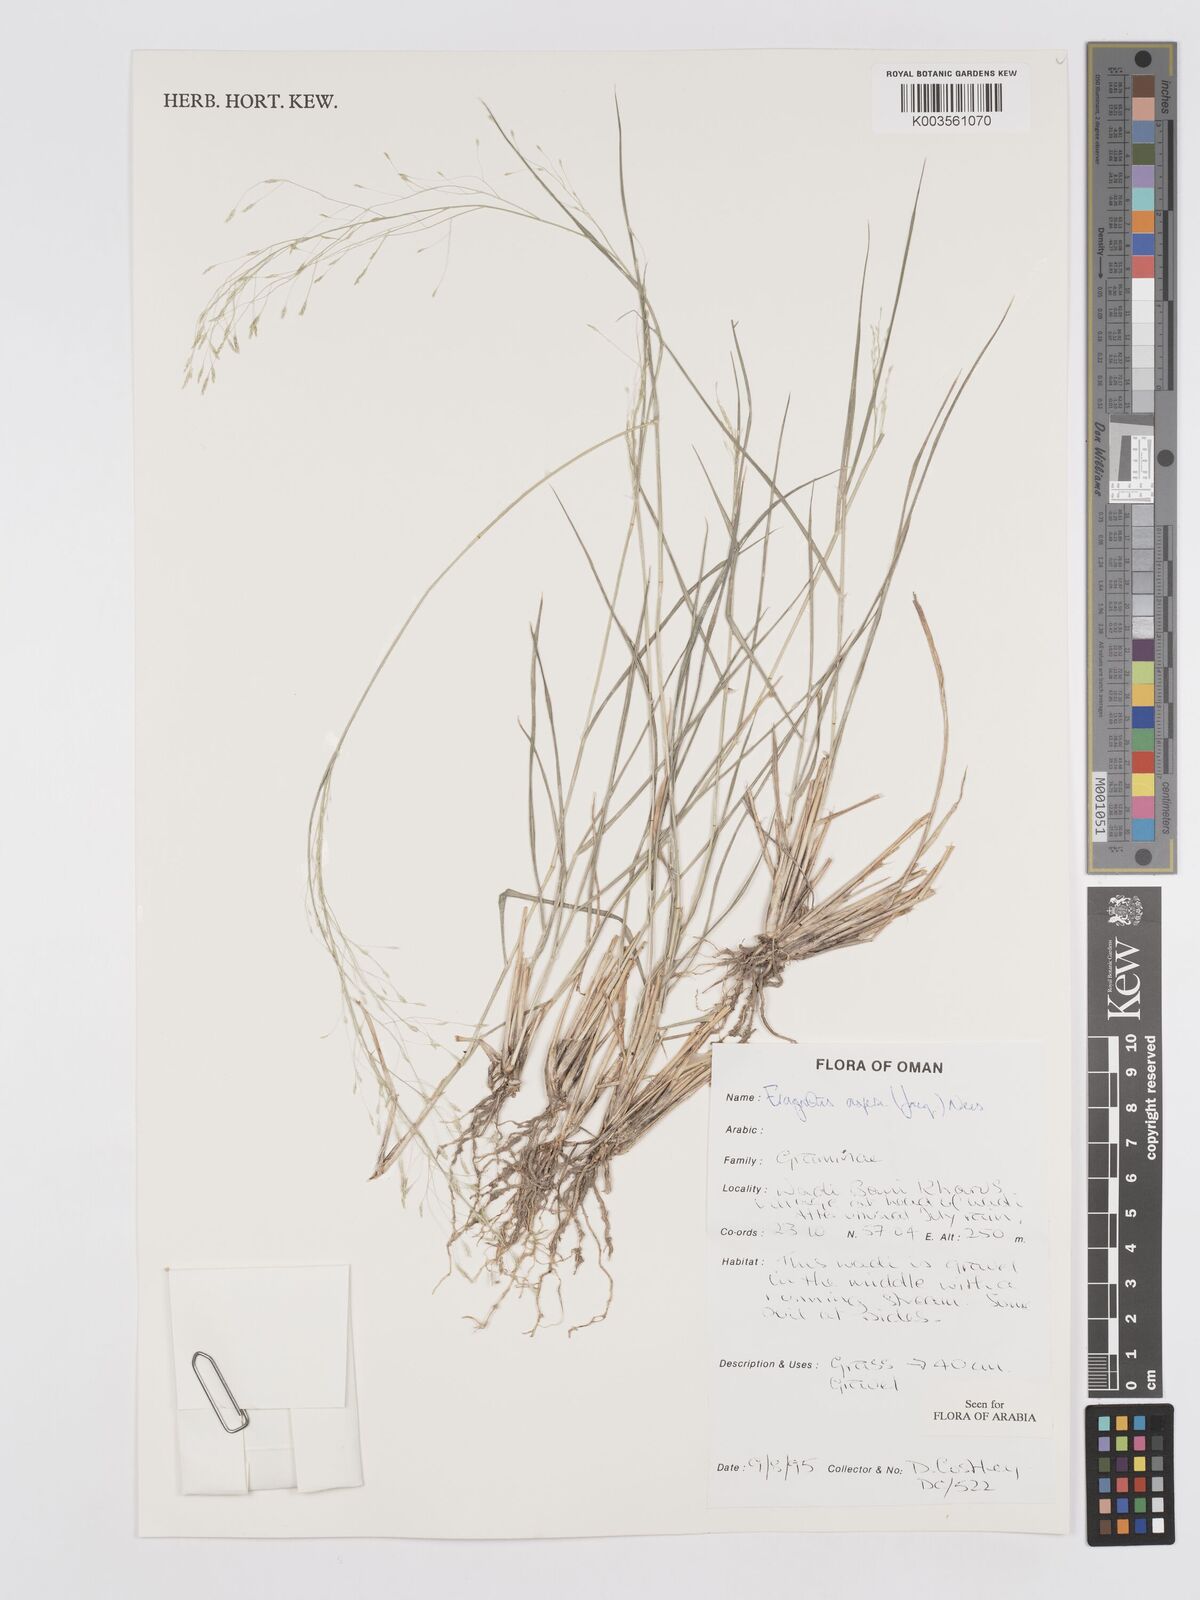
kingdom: Plantae
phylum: Tracheophyta
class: Liliopsida
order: Poales
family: Poaceae
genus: Eragrostis
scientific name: Eragrostis aspera
